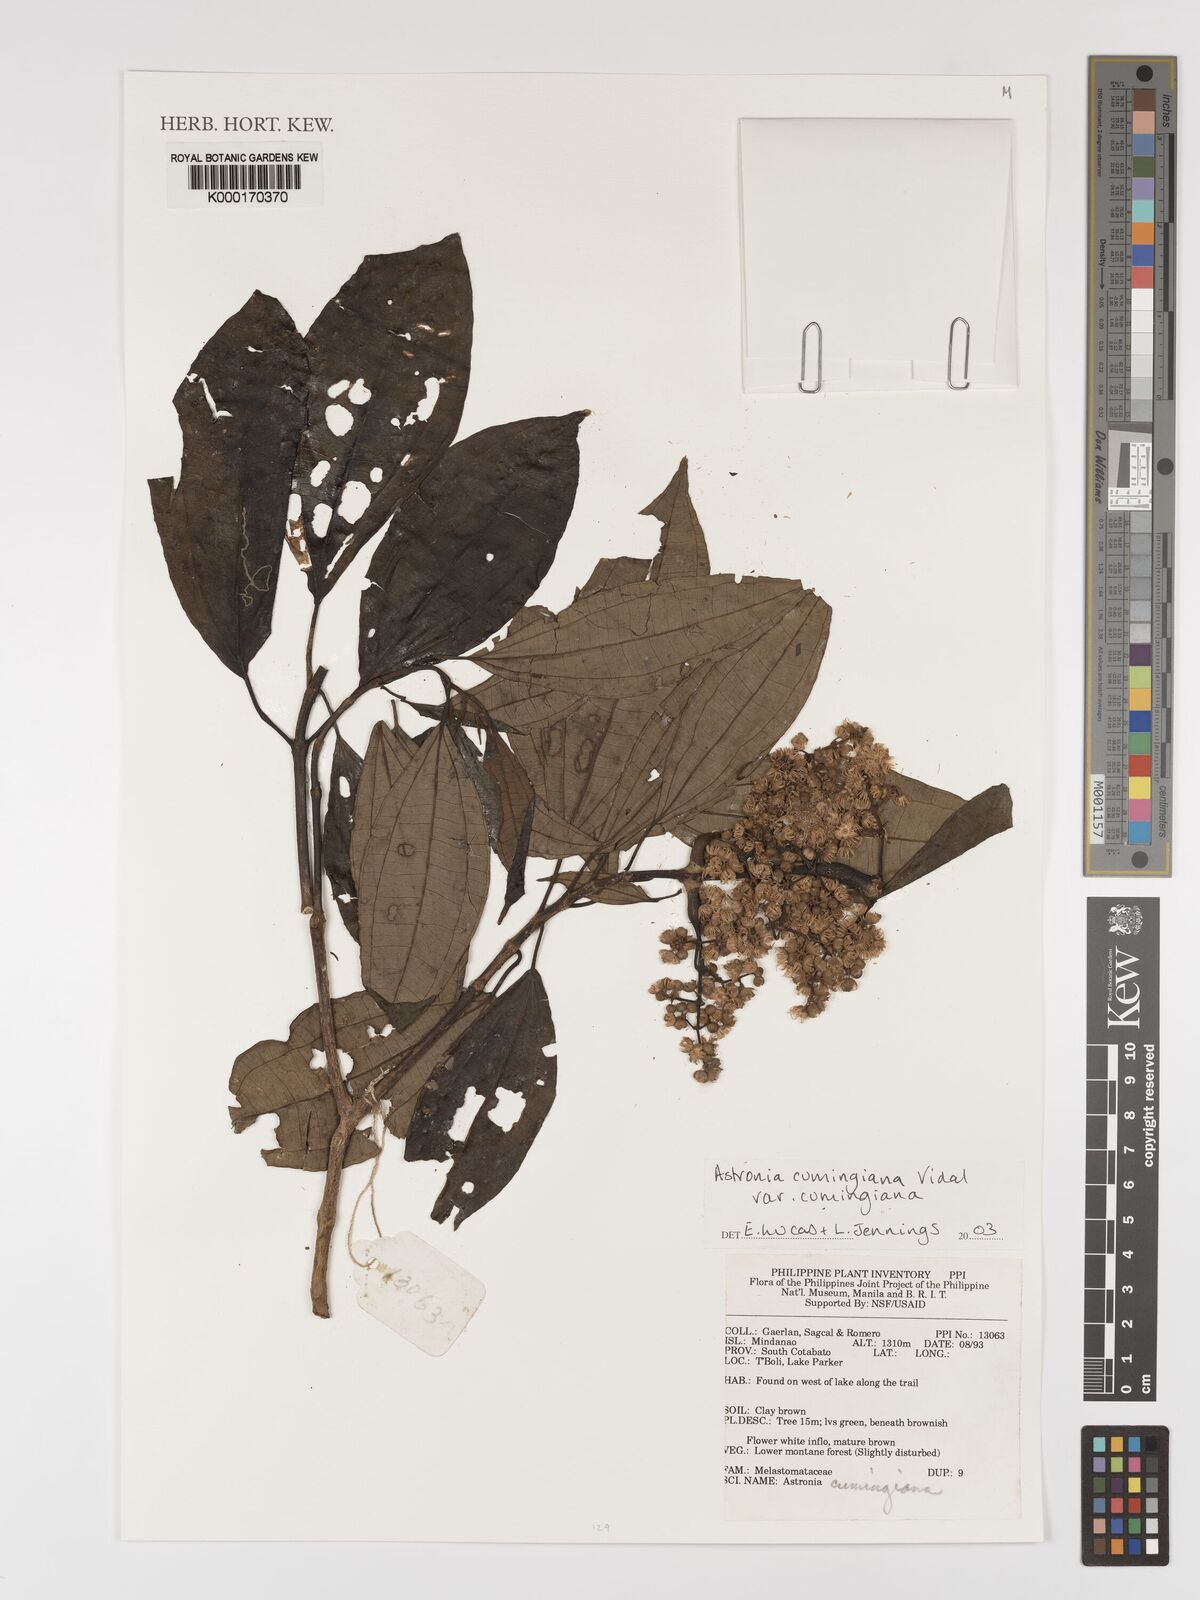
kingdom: Plantae
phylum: Tracheophyta
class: Magnoliopsida
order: Myrtales
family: Melastomataceae
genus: Astronia
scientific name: Astronia cumingiana
